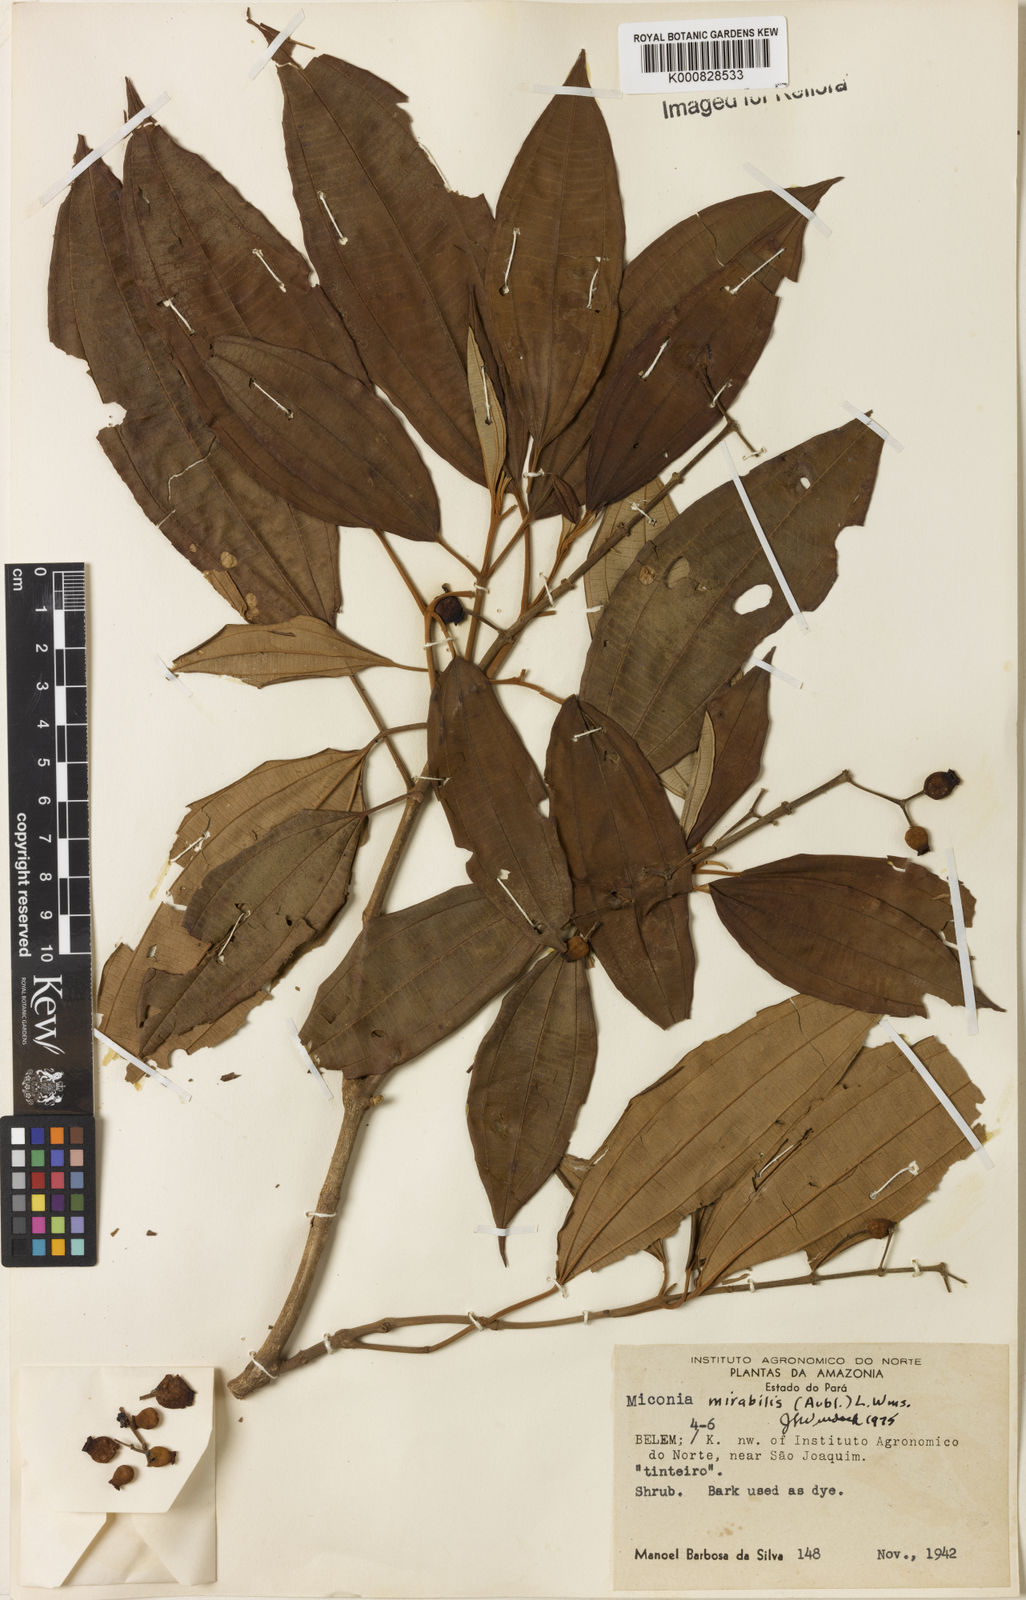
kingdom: Plantae
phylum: Tracheophyta
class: Magnoliopsida
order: Myrtales
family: Melastomataceae
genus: Miconia
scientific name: Miconia mirabilis
